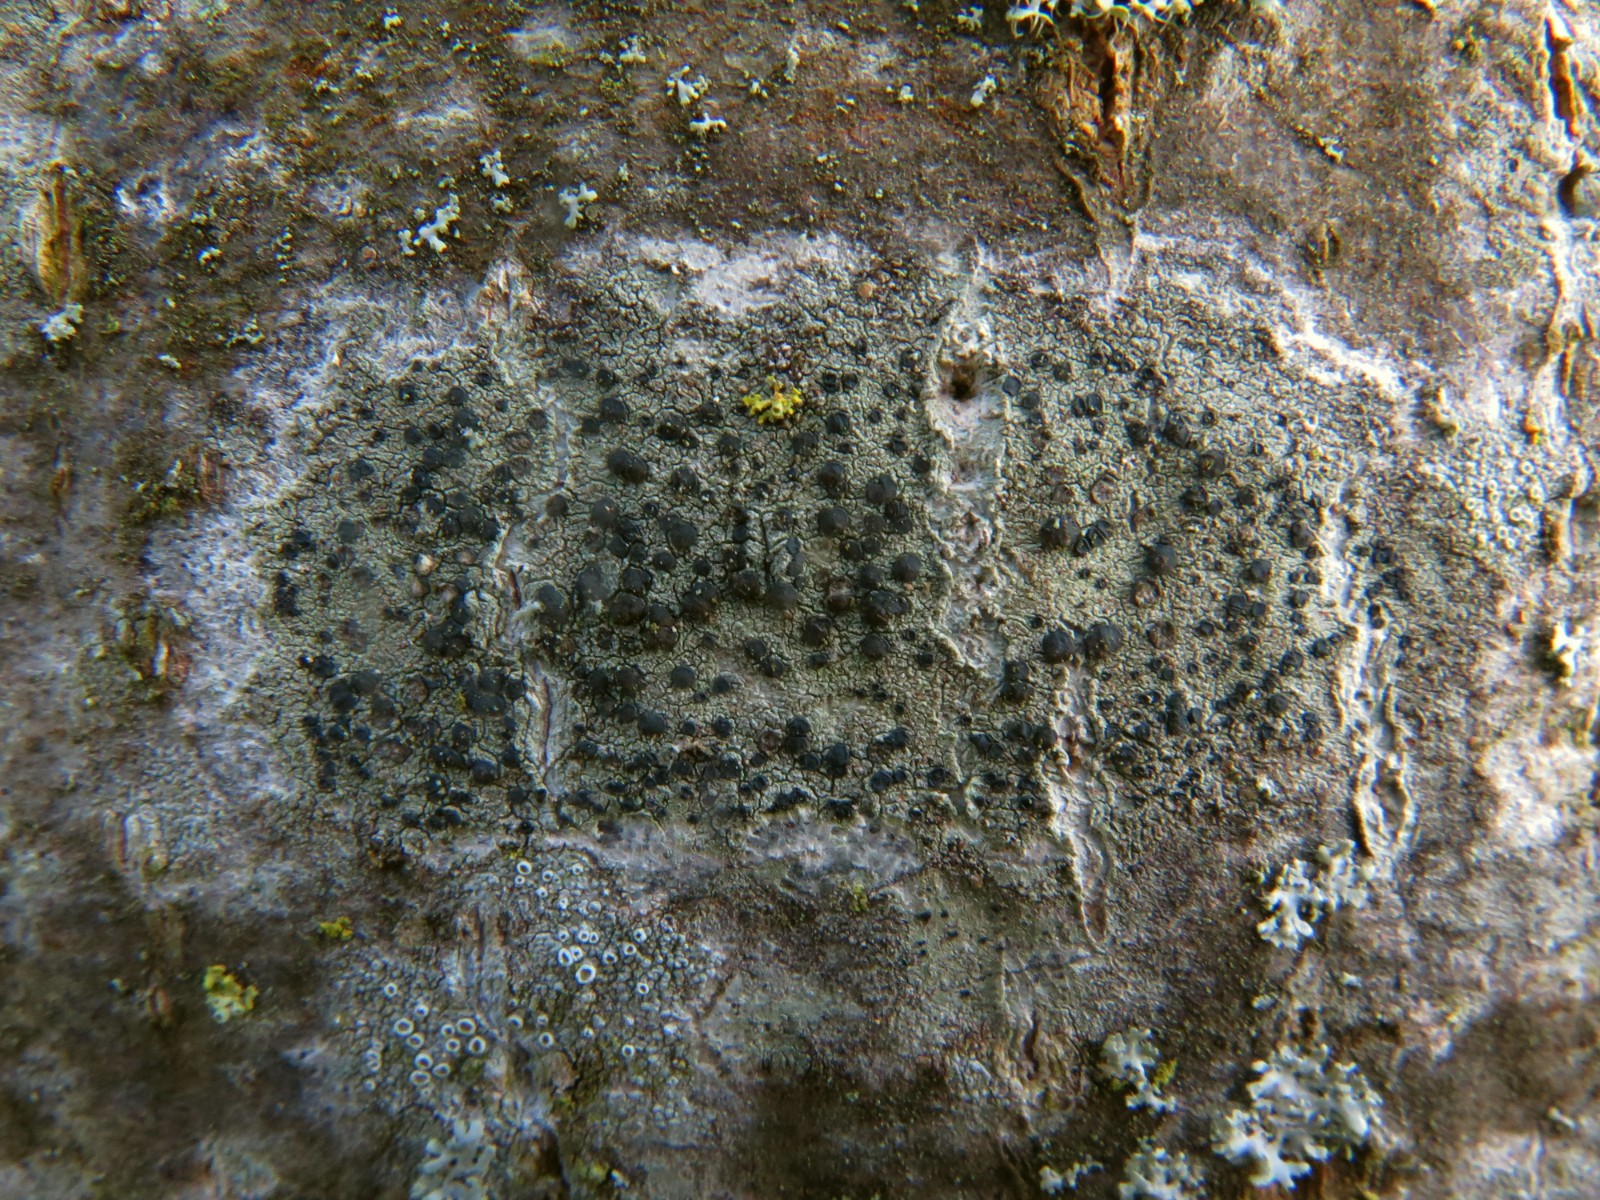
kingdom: Fungi
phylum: Ascomycota
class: Lecanoromycetes
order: Lecanorales
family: Lecanoraceae
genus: Lecidella
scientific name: Lecidella euphorea
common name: vortet skivelav
